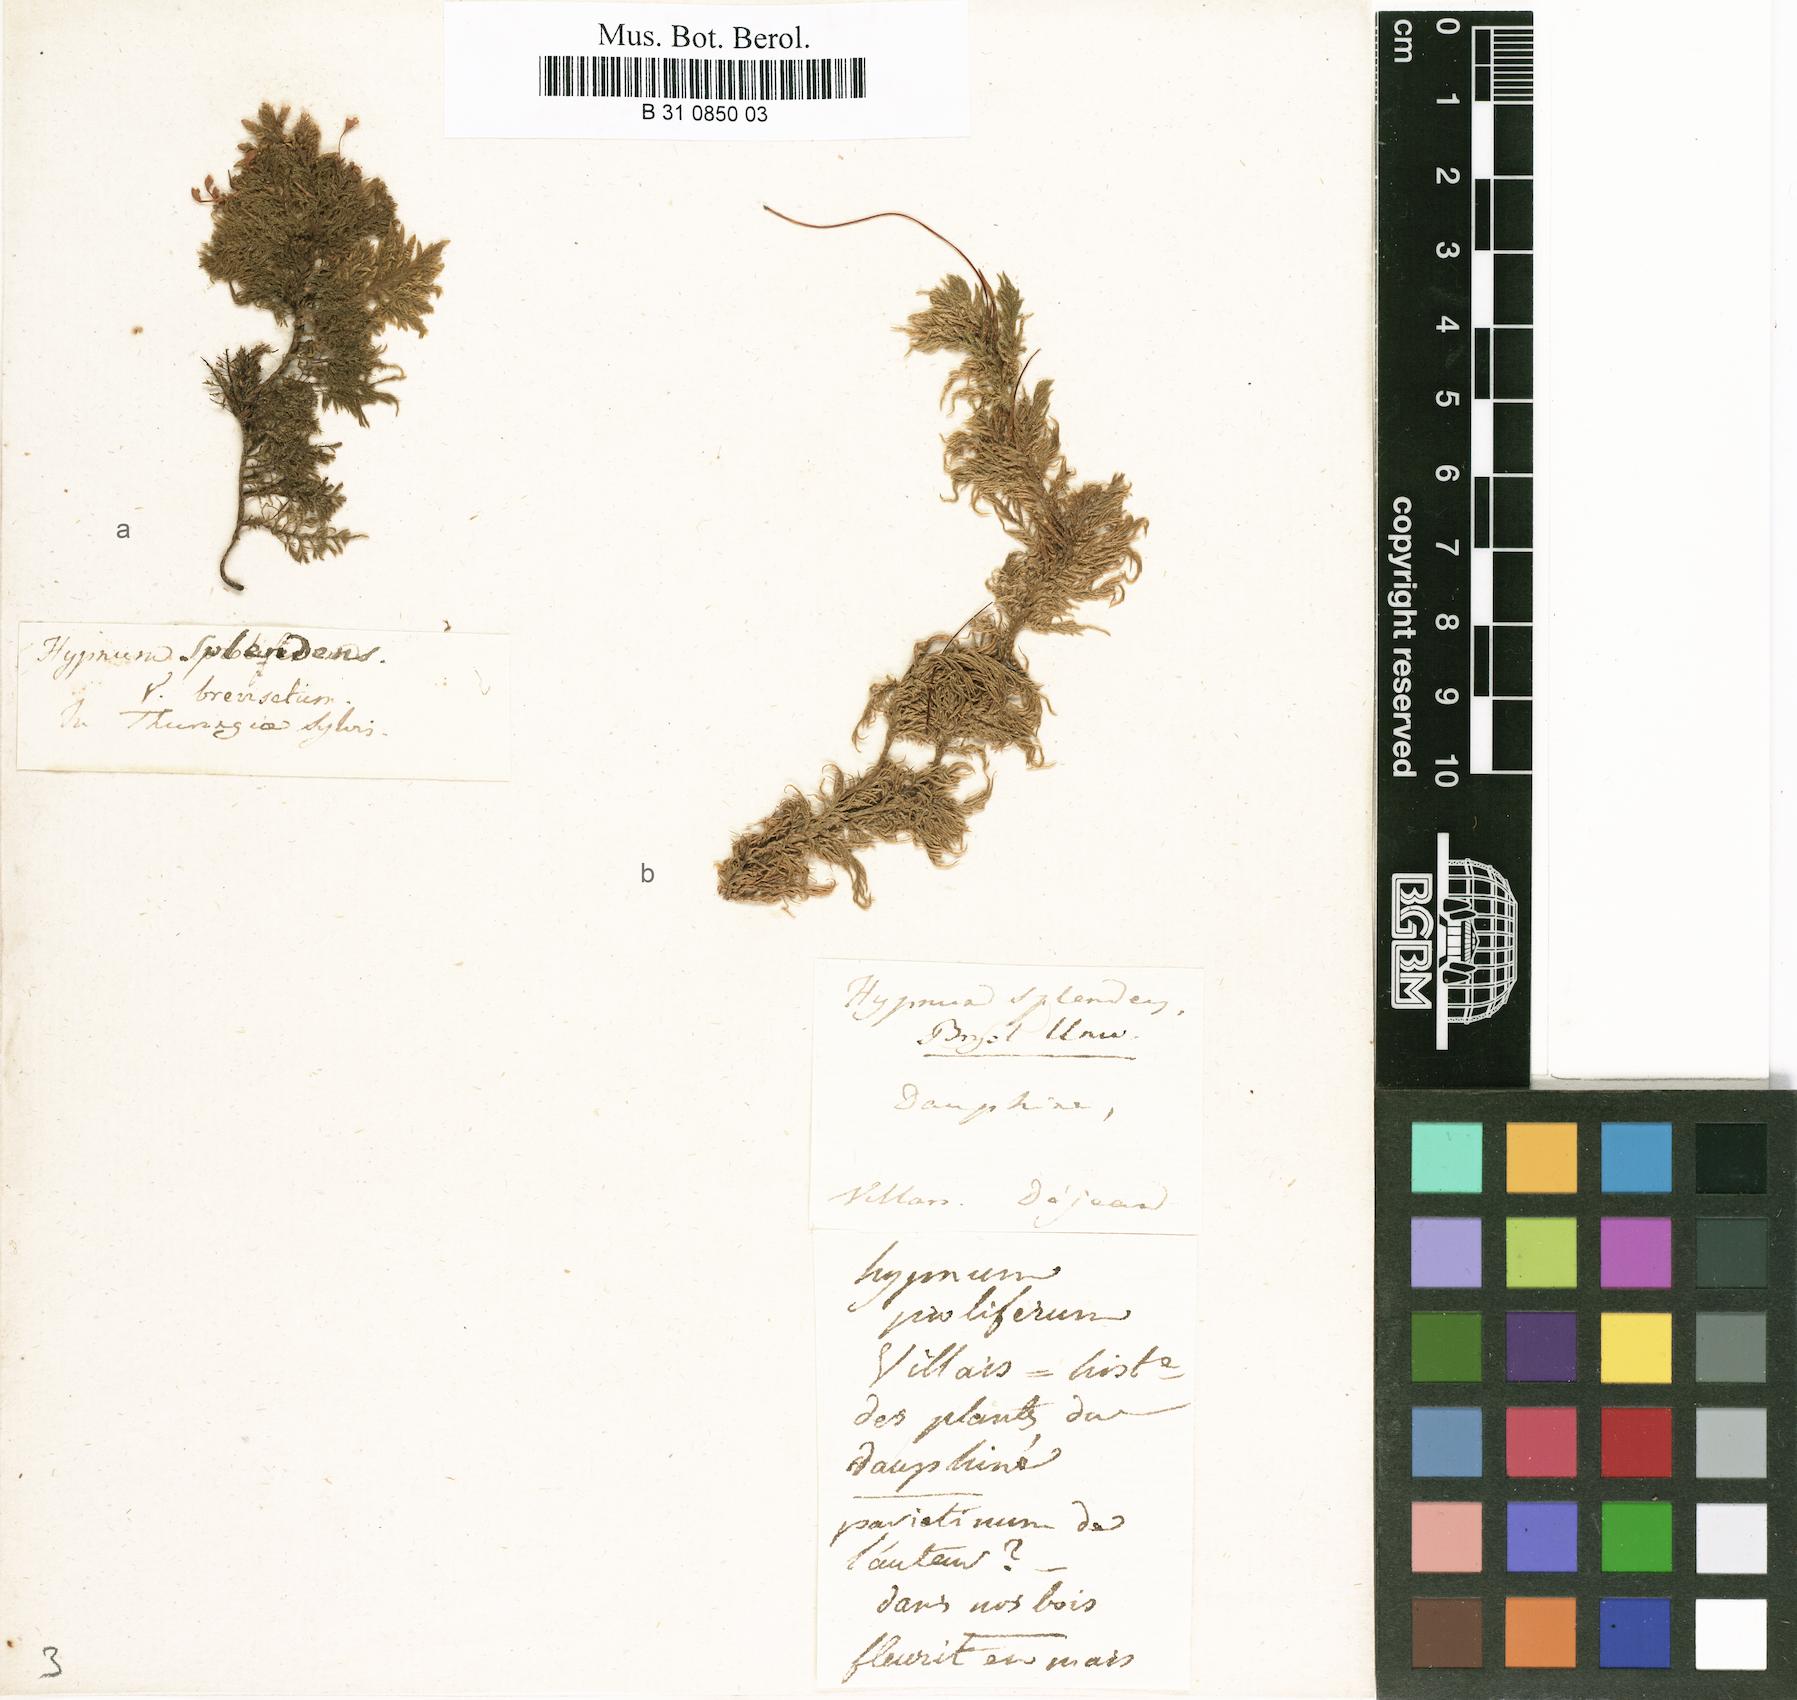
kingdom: Plantae
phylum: Bryophyta
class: Bryopsida
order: Hypnales
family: Hylocomiaceae
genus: Hylocomium
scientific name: Hylocomium splendens
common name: Stairstep moss
